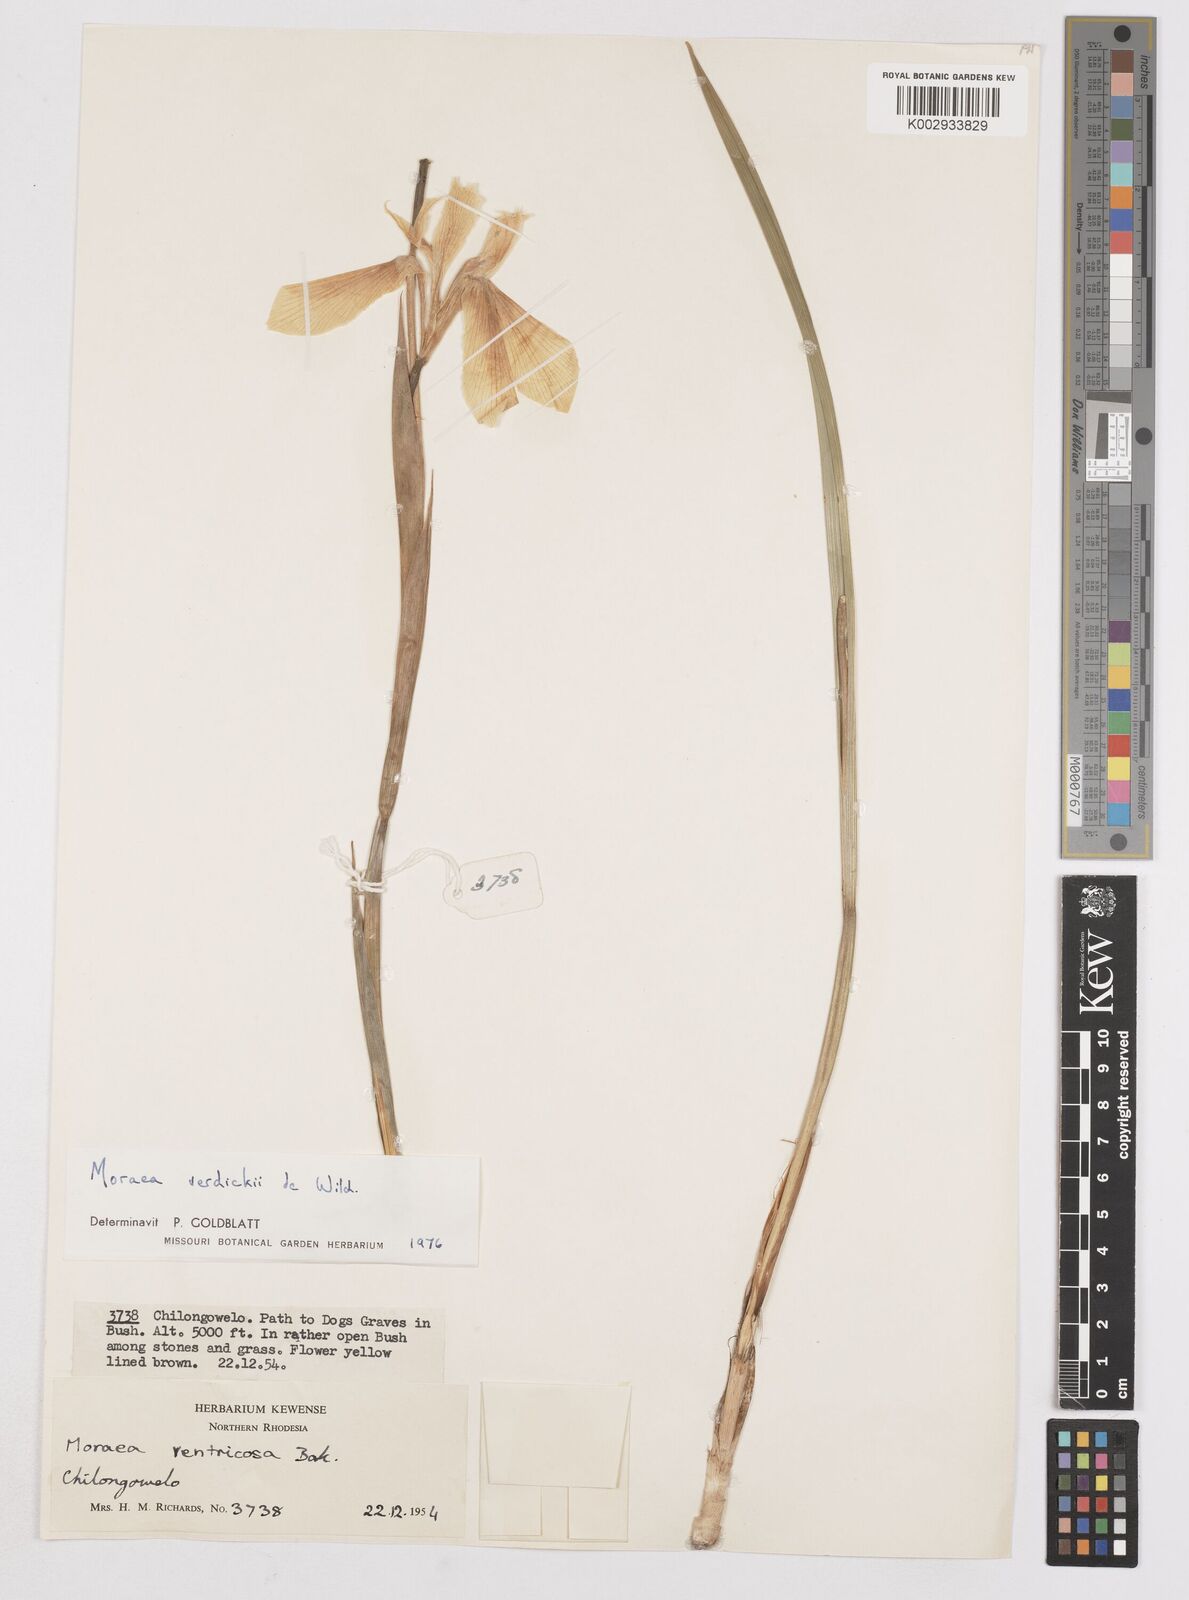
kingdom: Plantae
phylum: Tracheophyta
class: Liliopsida
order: Asparagales
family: Iridaceae
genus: Moraea
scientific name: Moraea verdickii
